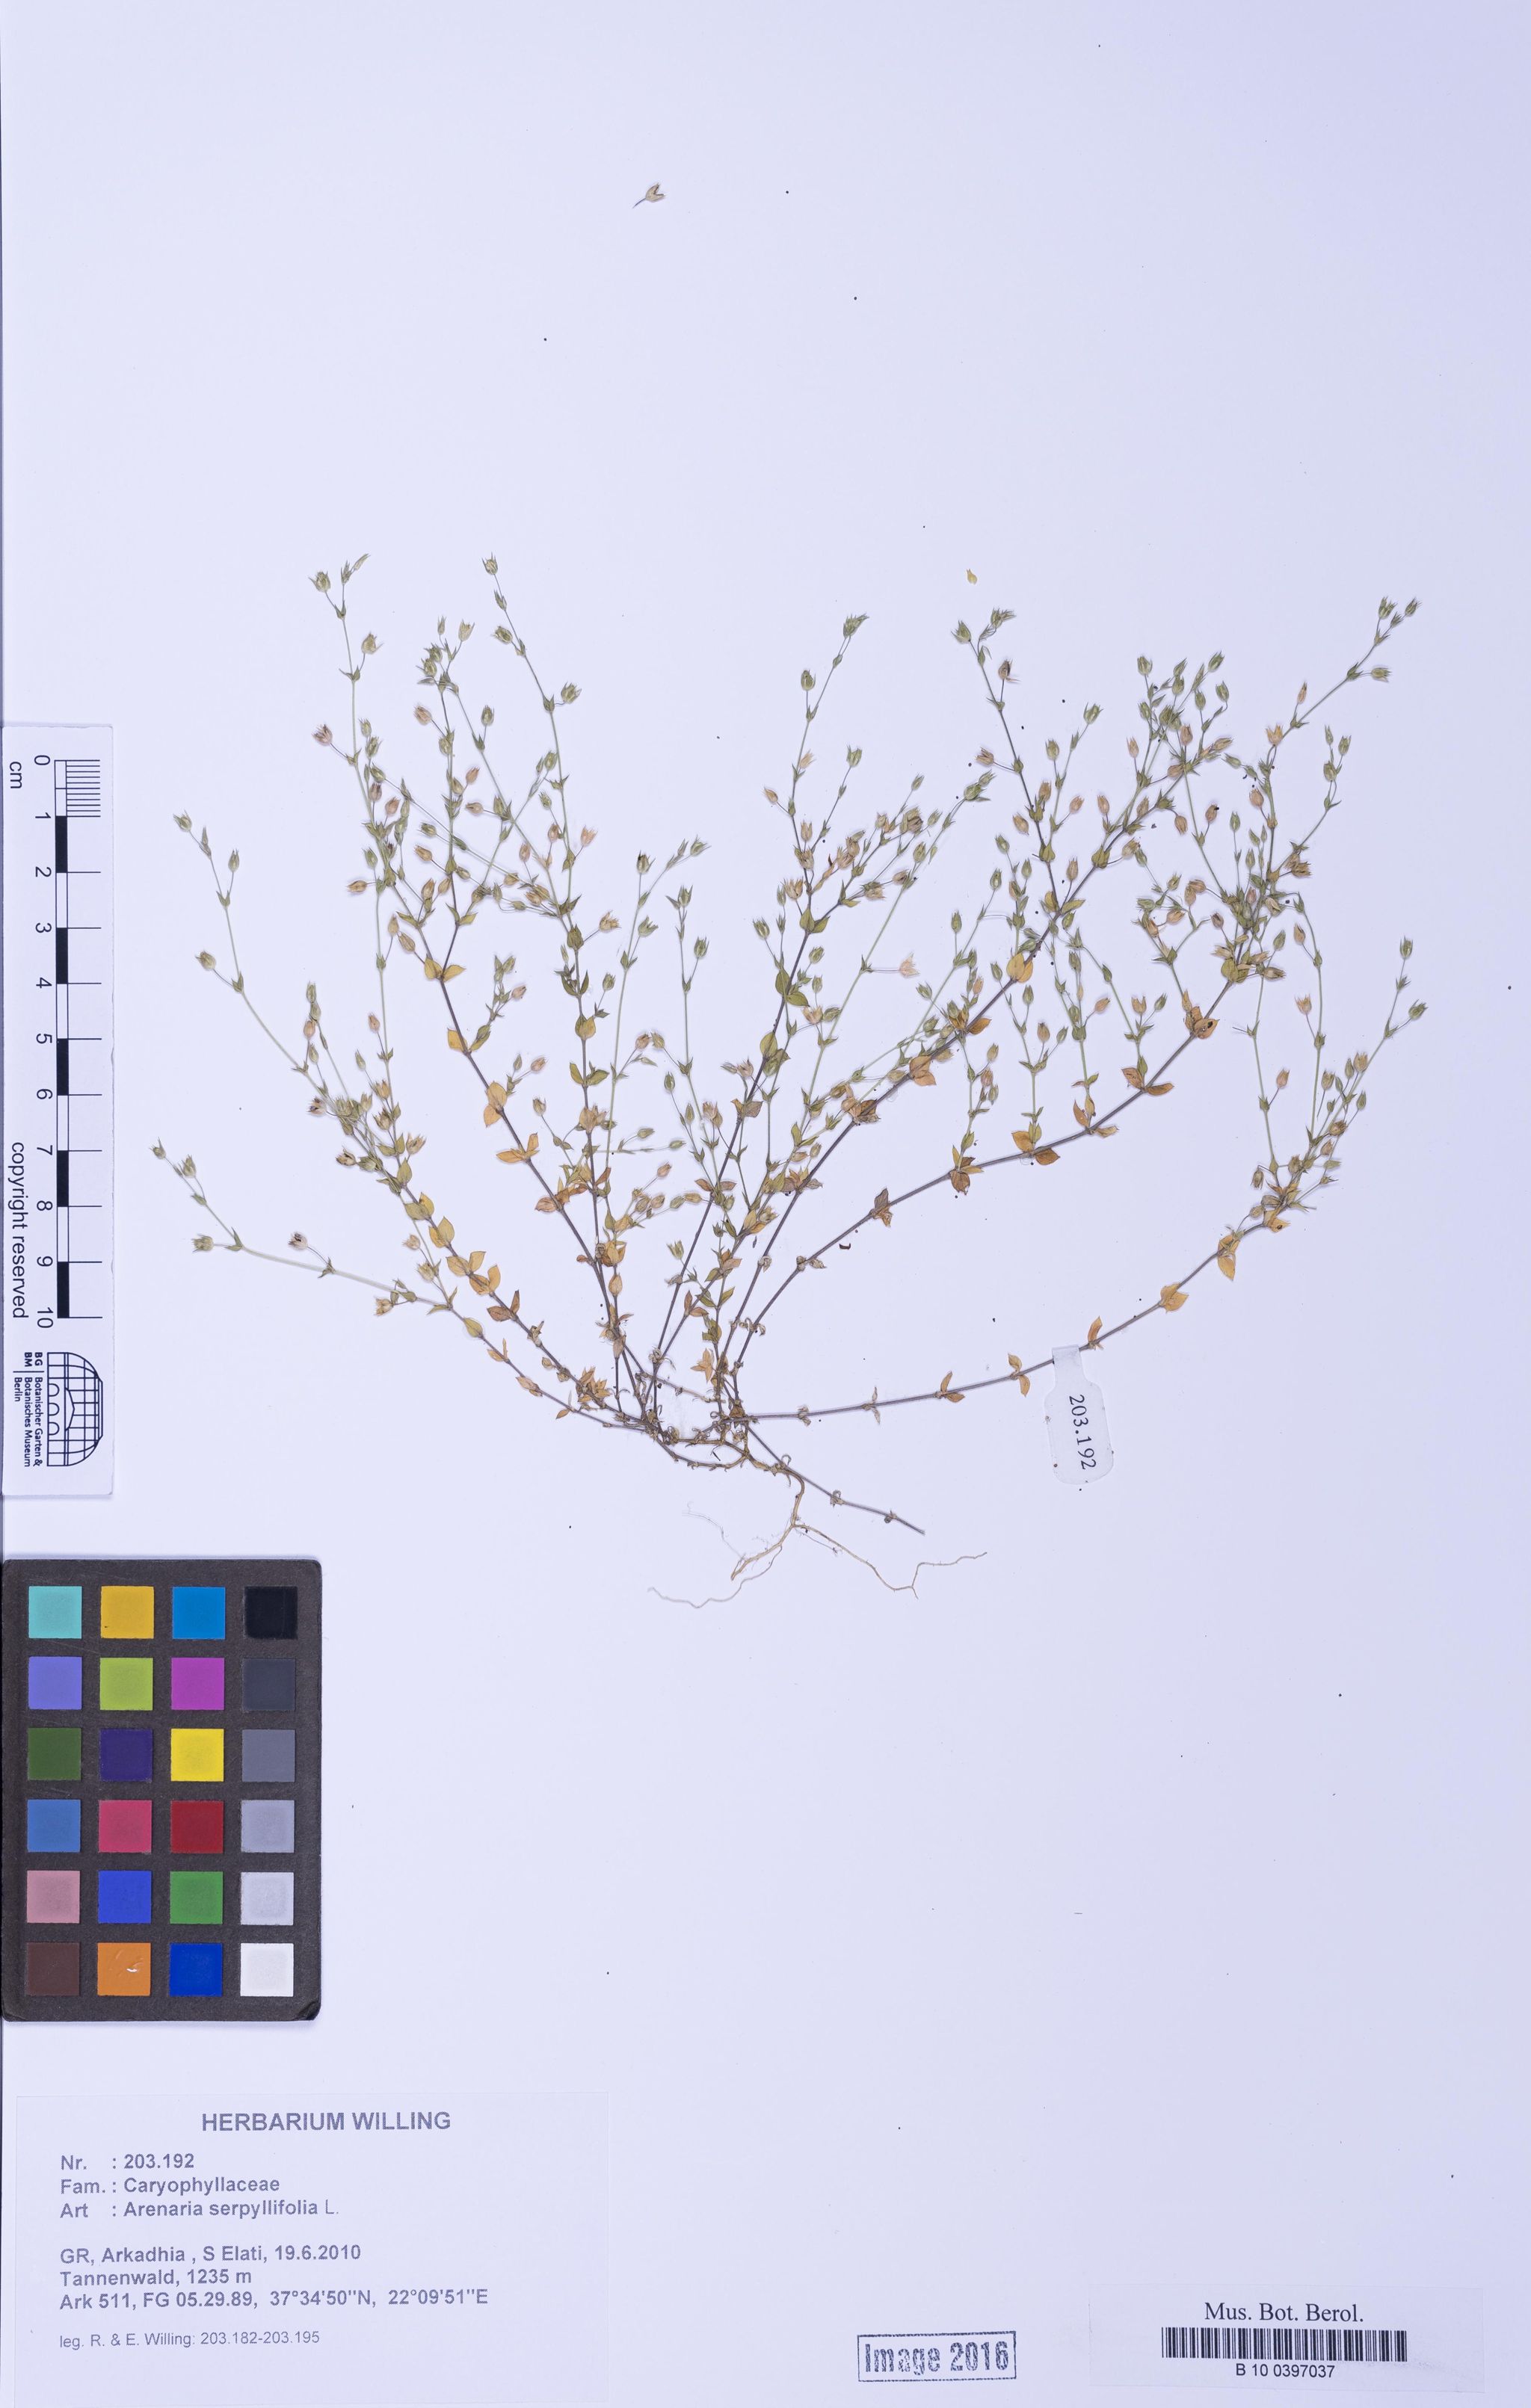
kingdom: Plantae
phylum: Tracheophyta
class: Magnoliopsida
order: Caryophyllales
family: Caryophyllaceae
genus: Arenaria
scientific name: Arenaria serpyllifolia
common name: Thyme-leaved sandwort
